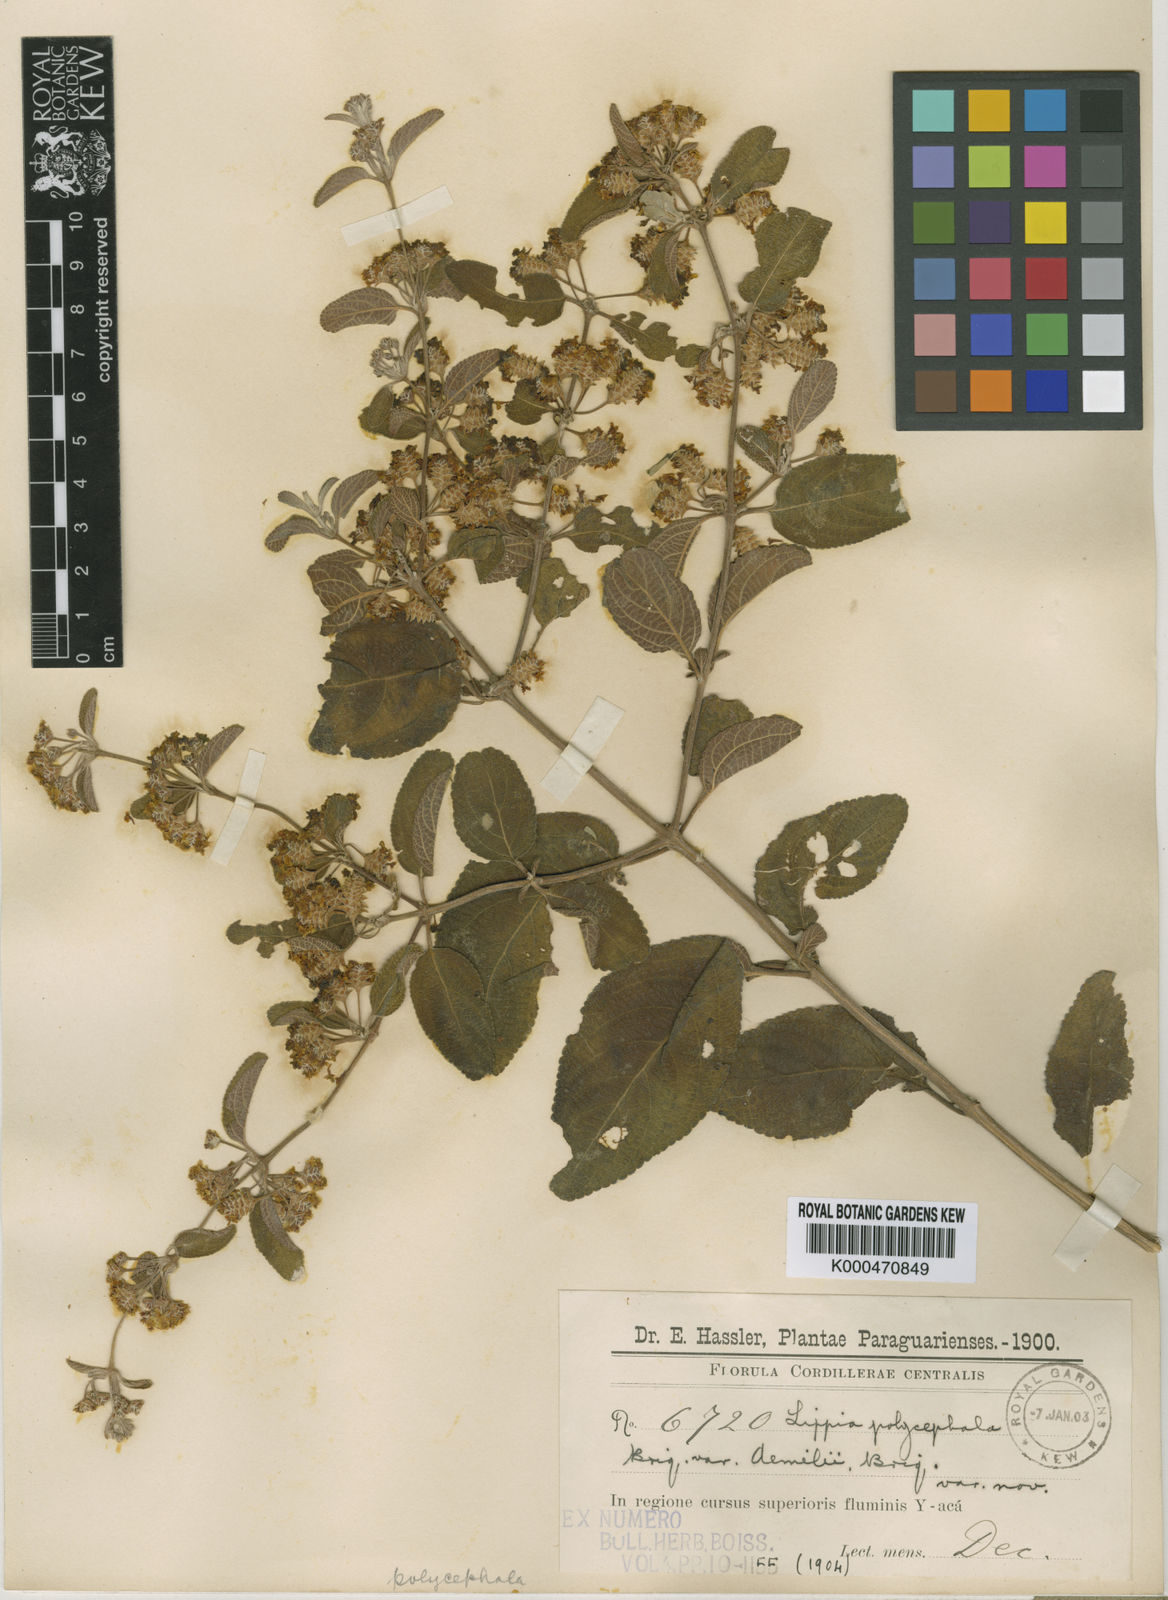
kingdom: Plantae
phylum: Tracheophyta
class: Magnoliopsida
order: Lamiales
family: Verbenaceae
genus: Lippia
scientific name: Lippia origanoides
